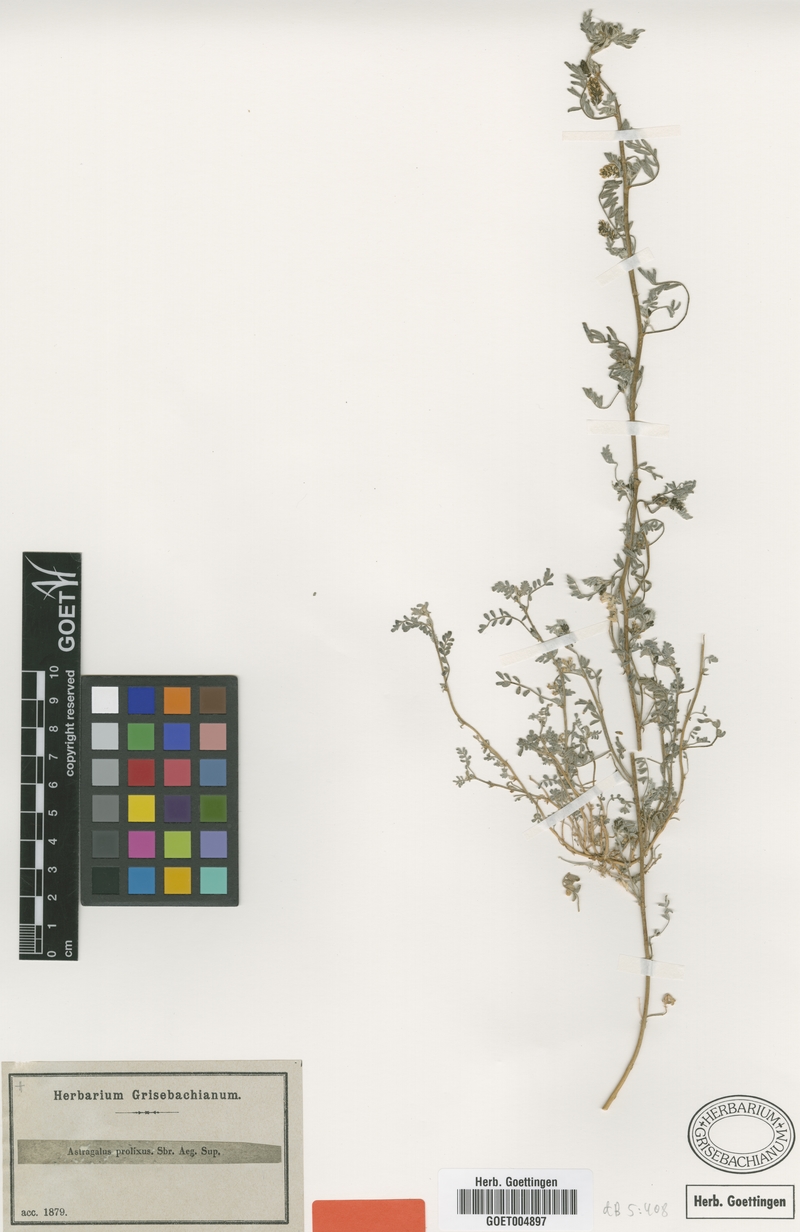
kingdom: Plantae
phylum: Tracheophyta
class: Magnoliopsida
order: Fabales
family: Fabaceae
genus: Astragalus
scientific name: Astragalus vogelii
